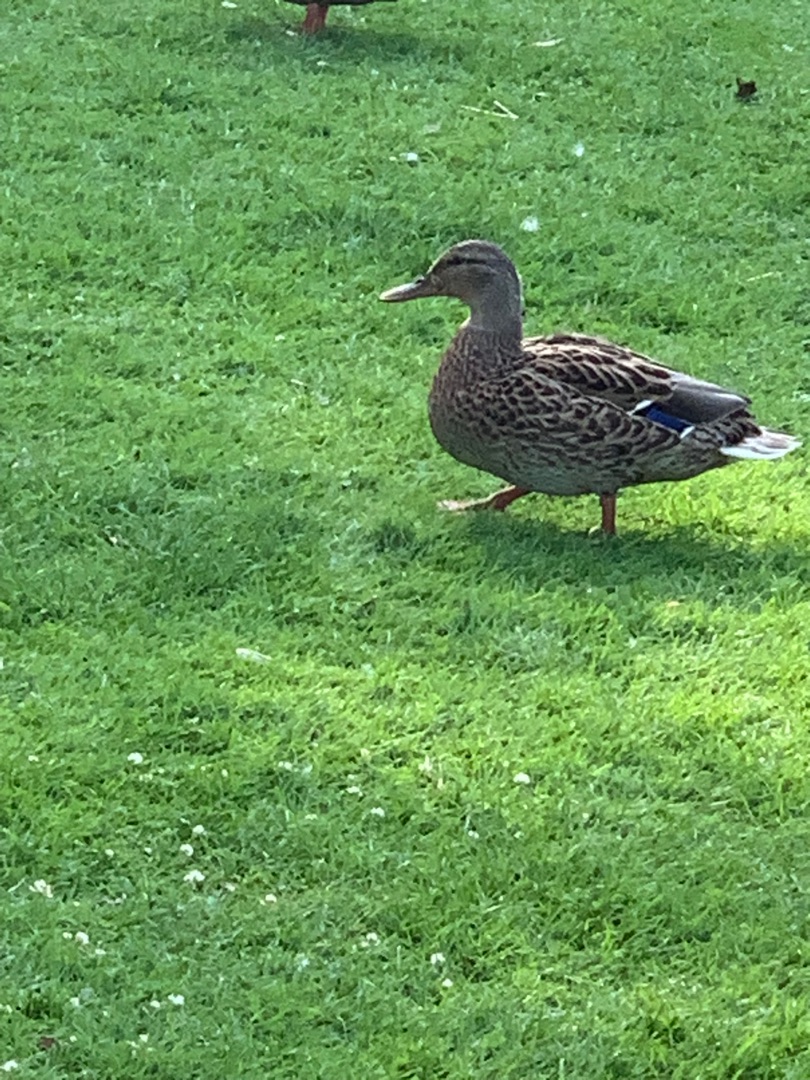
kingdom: Animalia
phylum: Chordata
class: Aves
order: Anseriformes
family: Anatidae
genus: Anas
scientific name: Anas platyrhynchos
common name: Gråand
